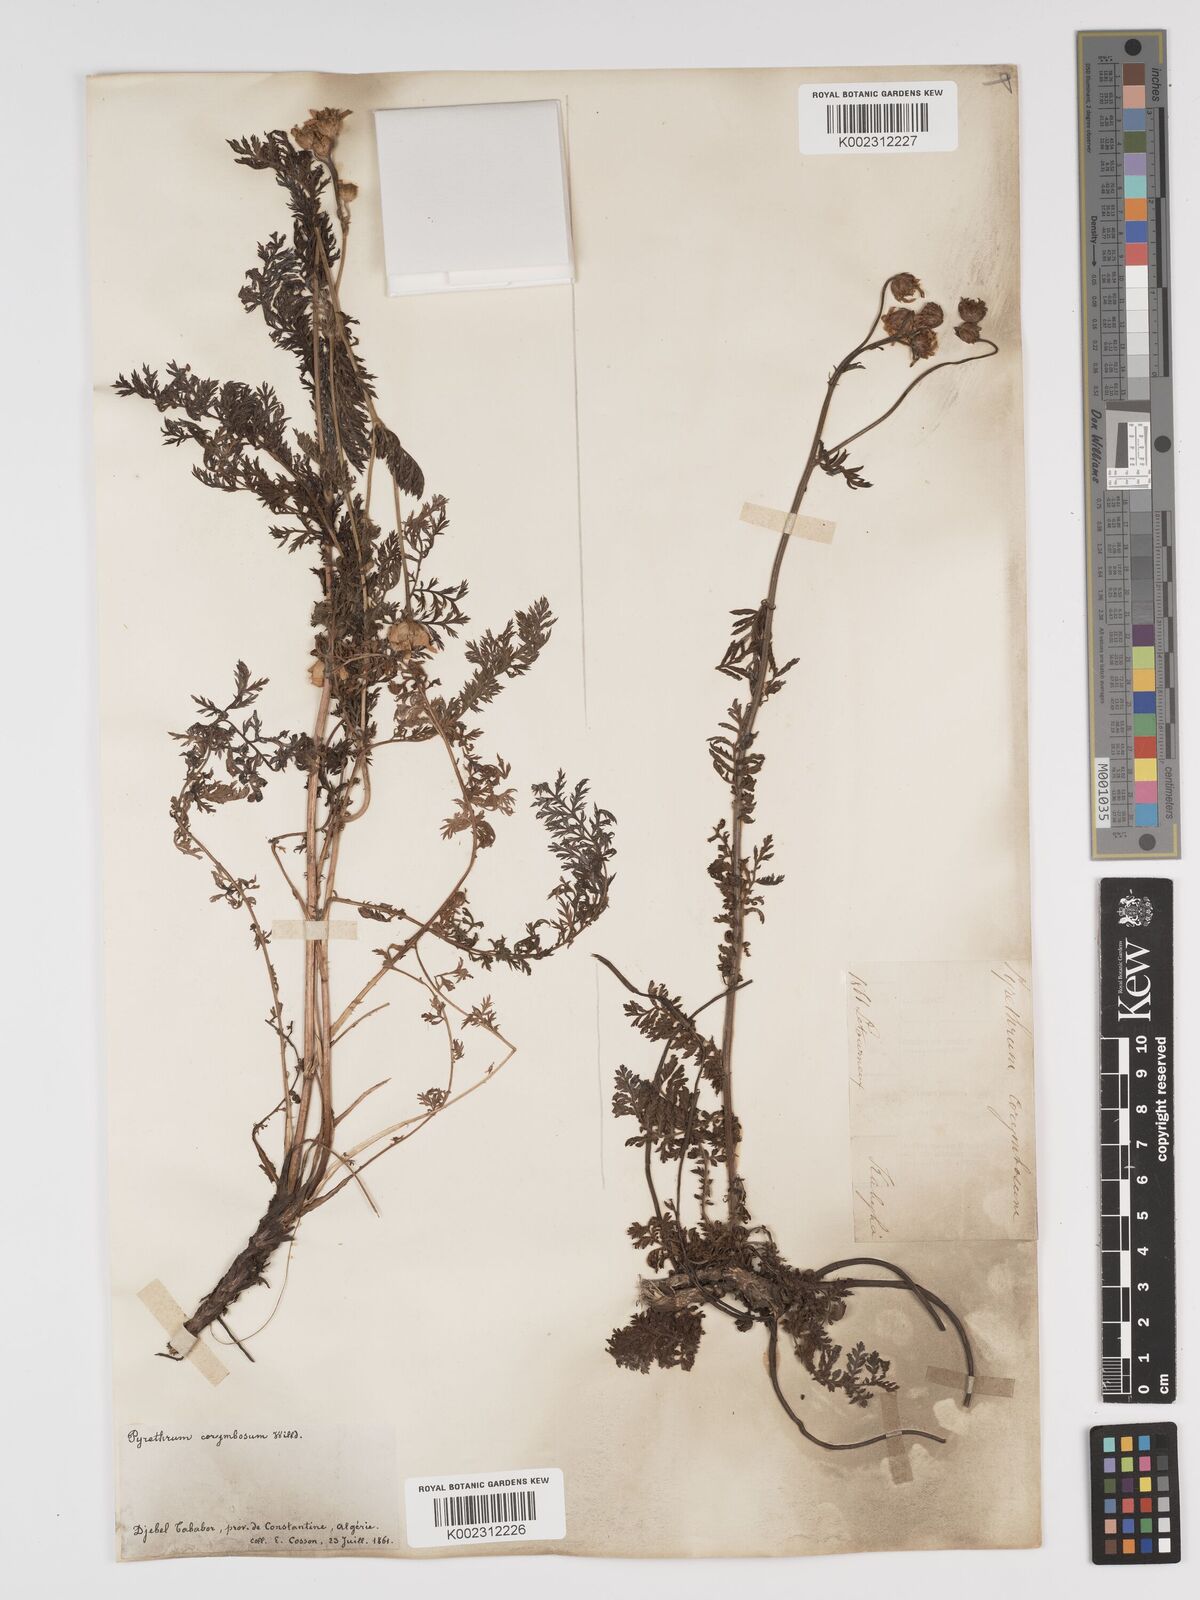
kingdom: Plantae
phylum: Tracheophyta
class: Magnoliopsida
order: Asterales
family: Asteraceae
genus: Tanacetum
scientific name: Tanacetum corymbosum
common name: Scentless feverfew
